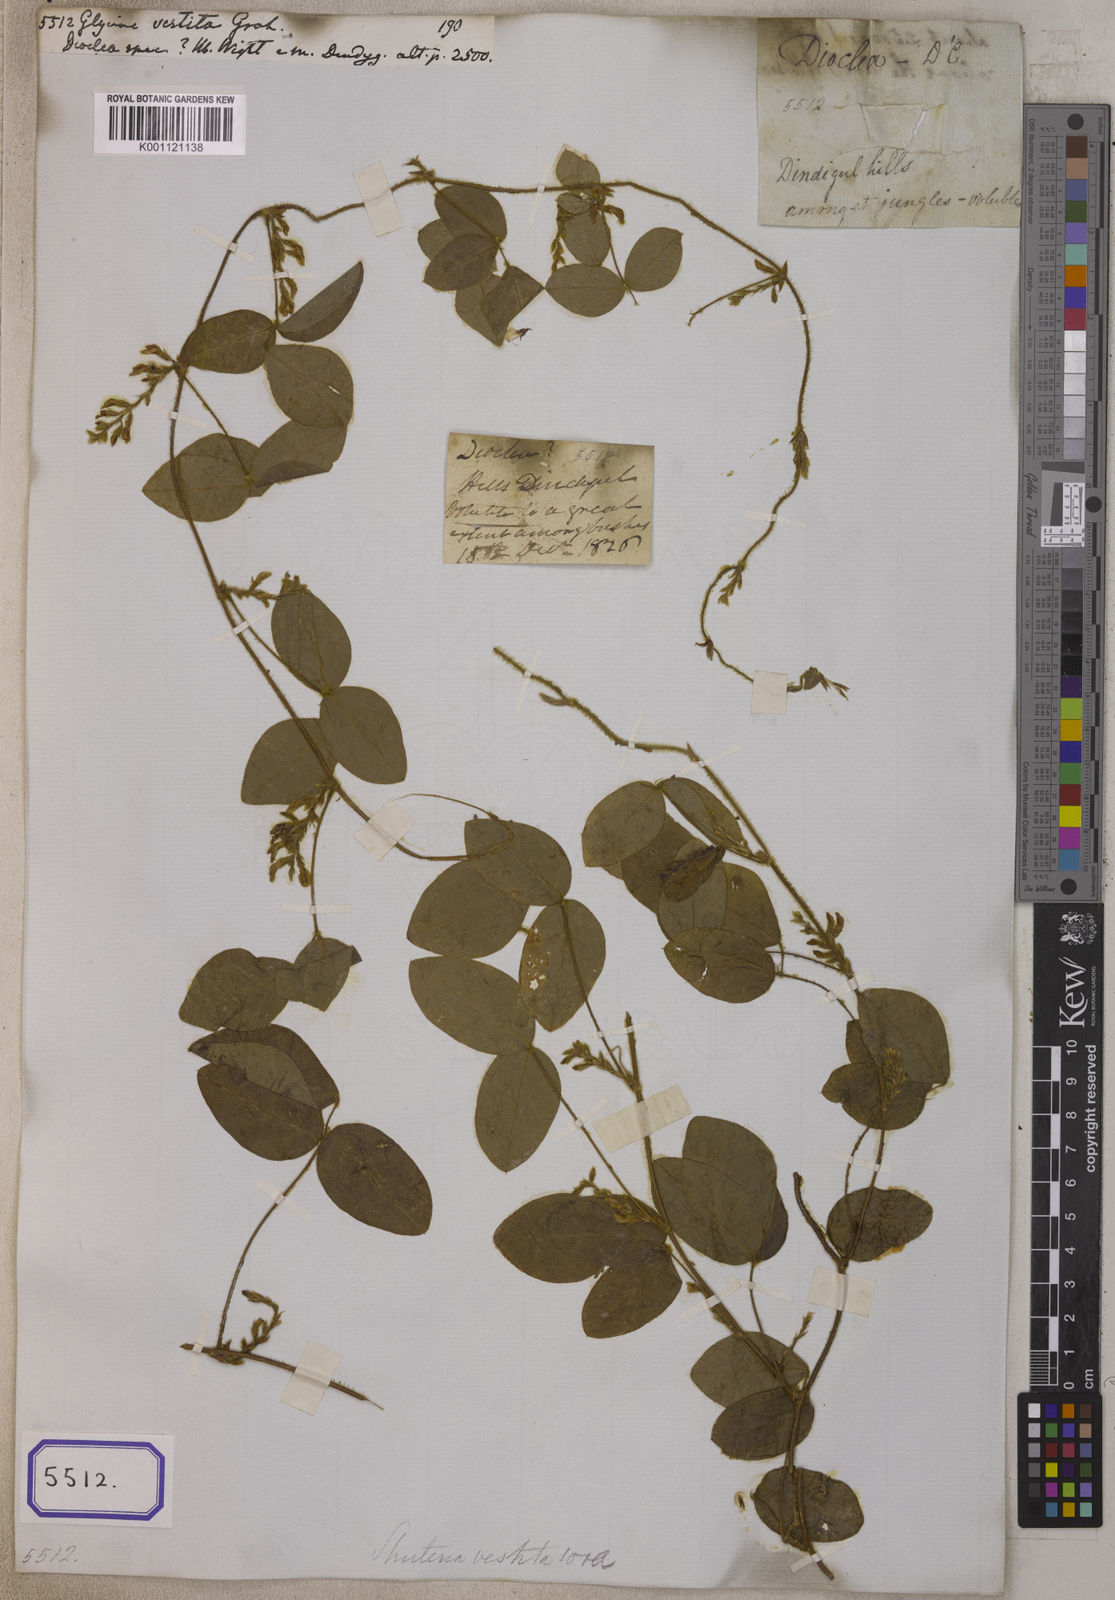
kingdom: Plantae
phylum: Tracheophyta
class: Magnoliopsida
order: Fabales
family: Fabaceae
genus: Shuteria
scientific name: Shuteria vestita
